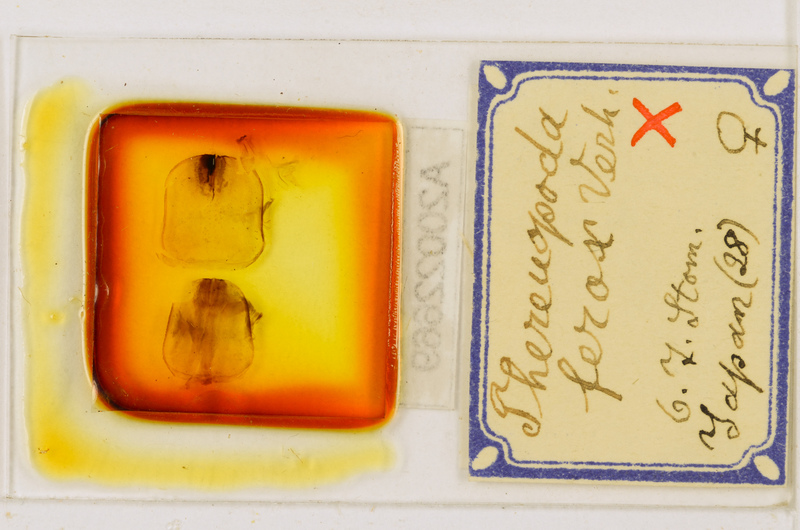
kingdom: Animalia
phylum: Arthropoda
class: Chilopoda
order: Scutigeromorpha
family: Scutigeridae
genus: Thereuopoda
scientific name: Thereuopoda clunifera
